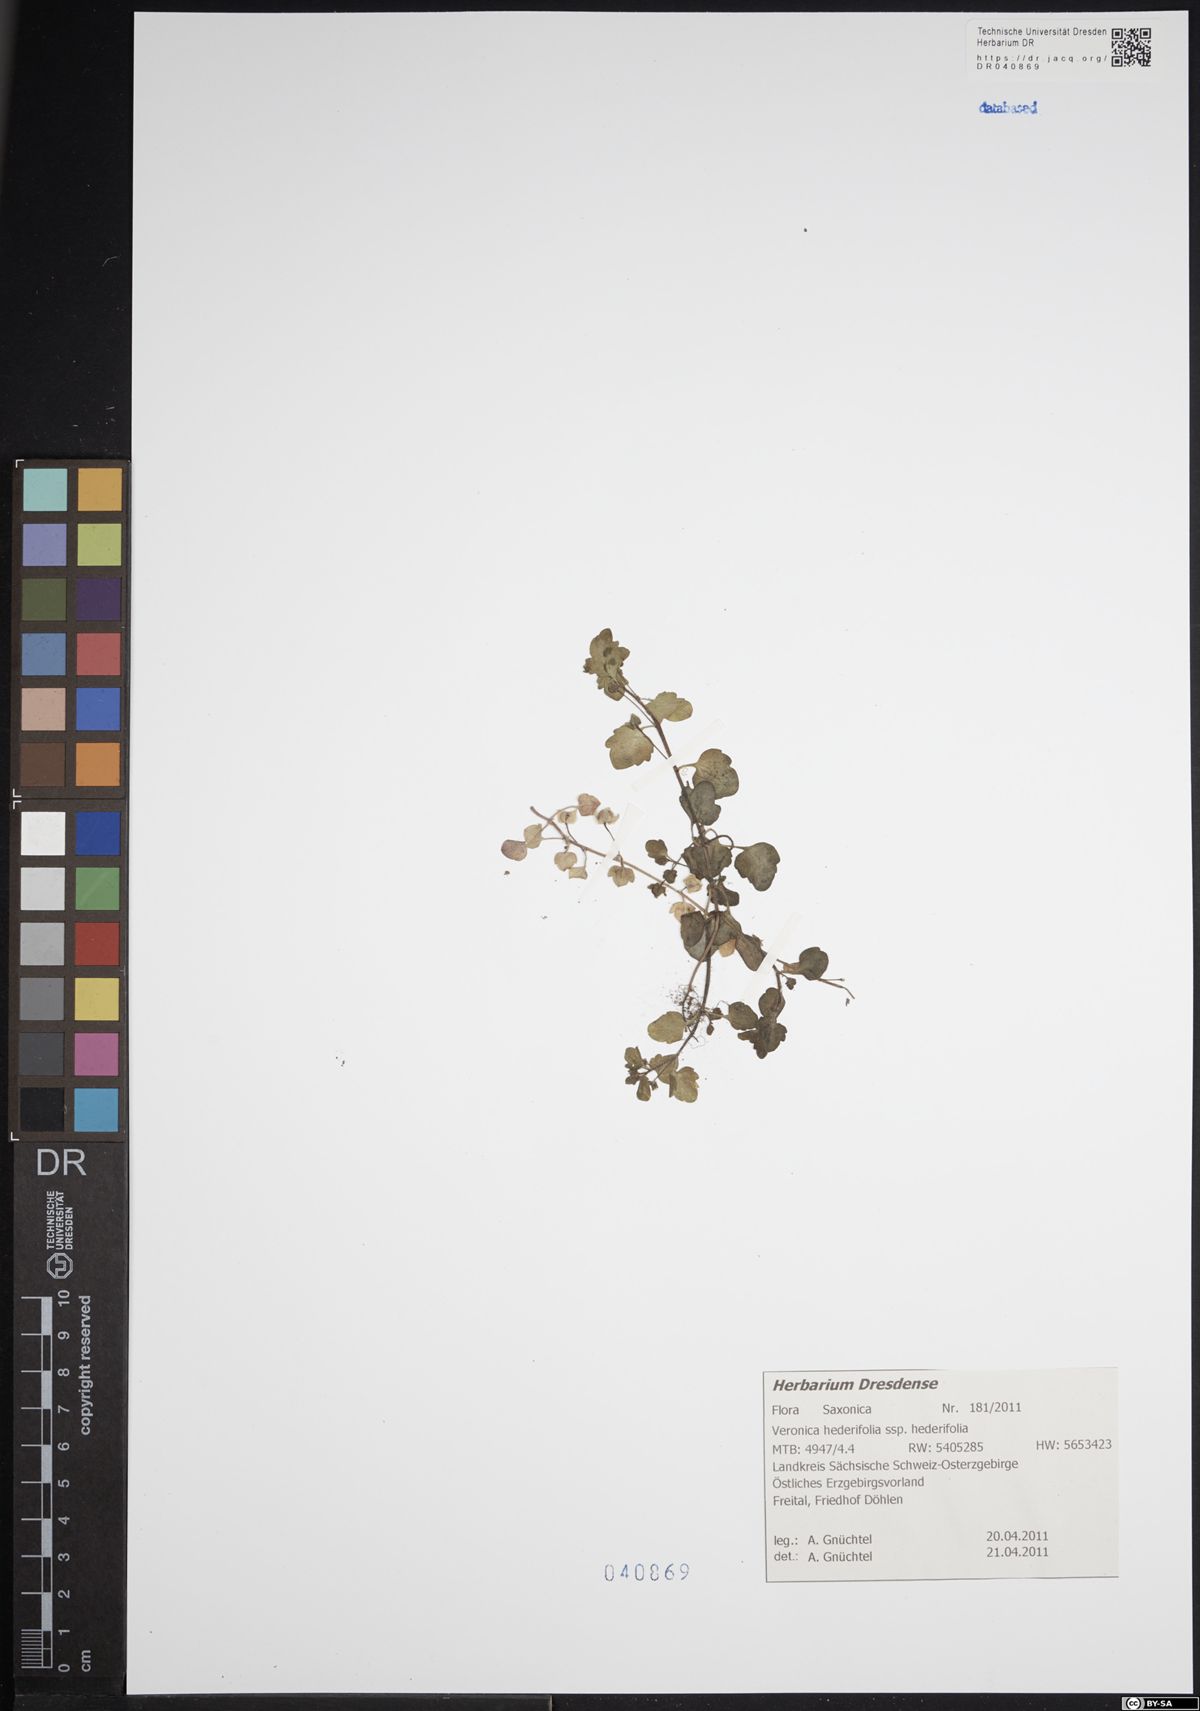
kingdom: Plantae
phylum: Tracheophyta
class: Magnoliopsida
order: Lamiales
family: Plantaginaceae
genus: Veronica
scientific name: Veronica hederifolia
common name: Ivy-leaved speedwell
